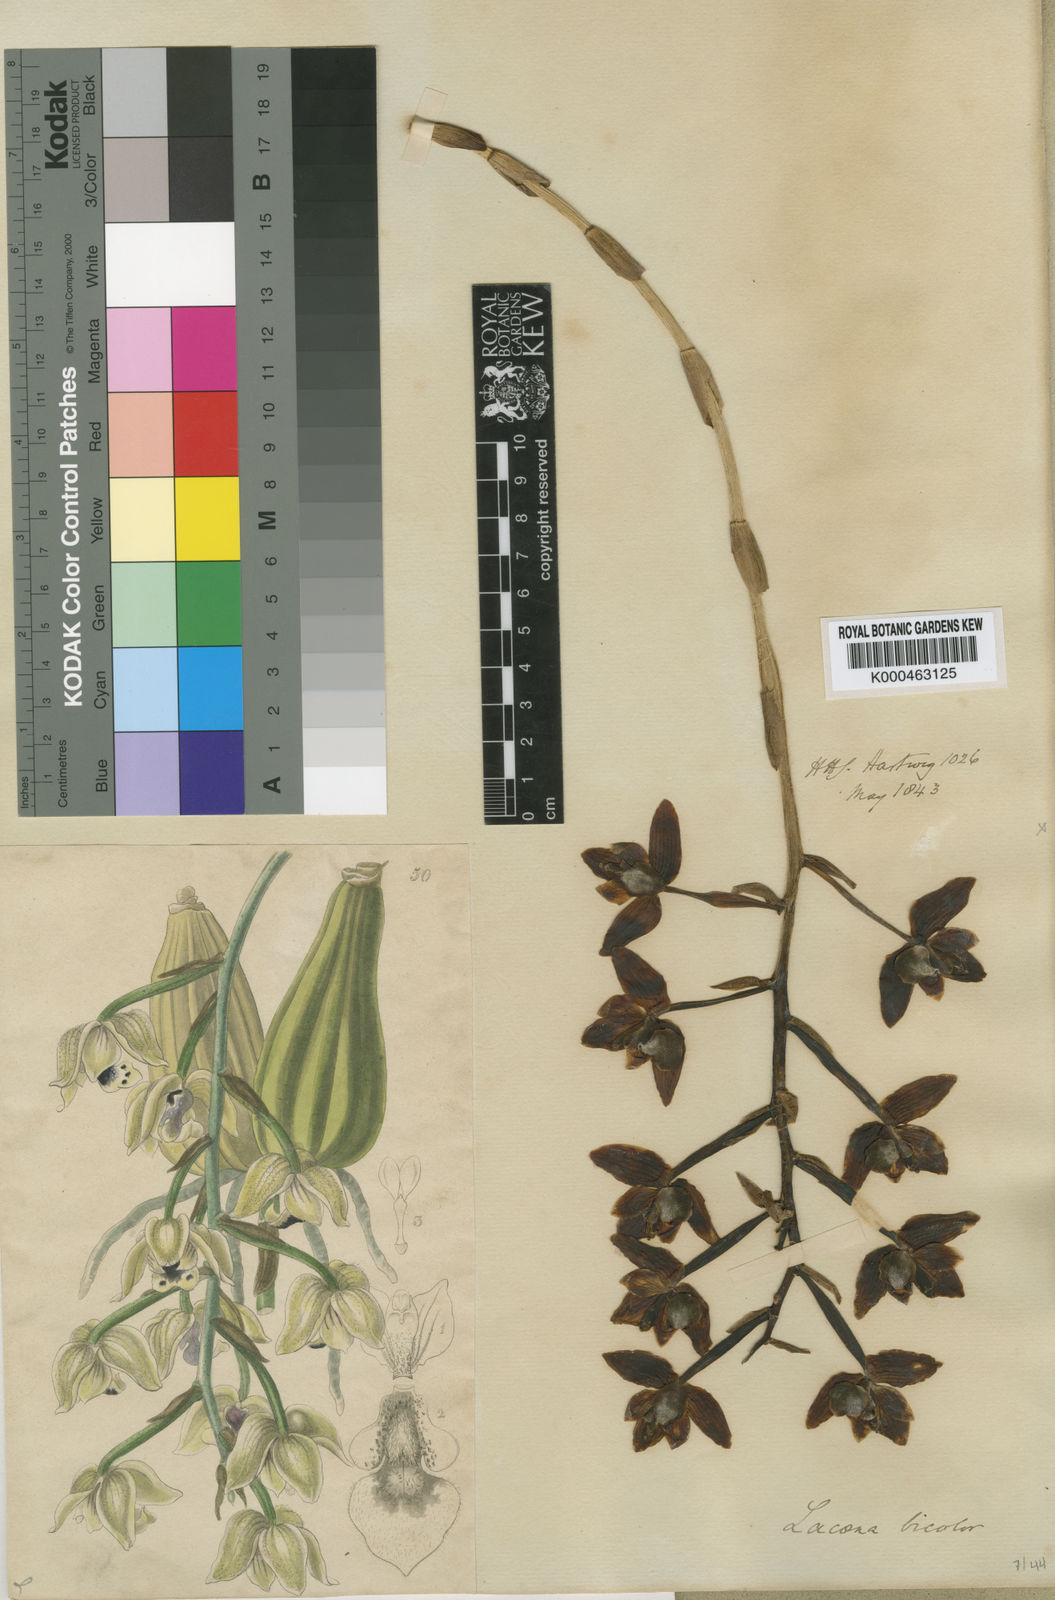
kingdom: Plantae
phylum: Tracheophyta
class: Liliopsida
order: Asparagales
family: Orchidaceae
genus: Lacaena
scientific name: Lacaena bicolor
